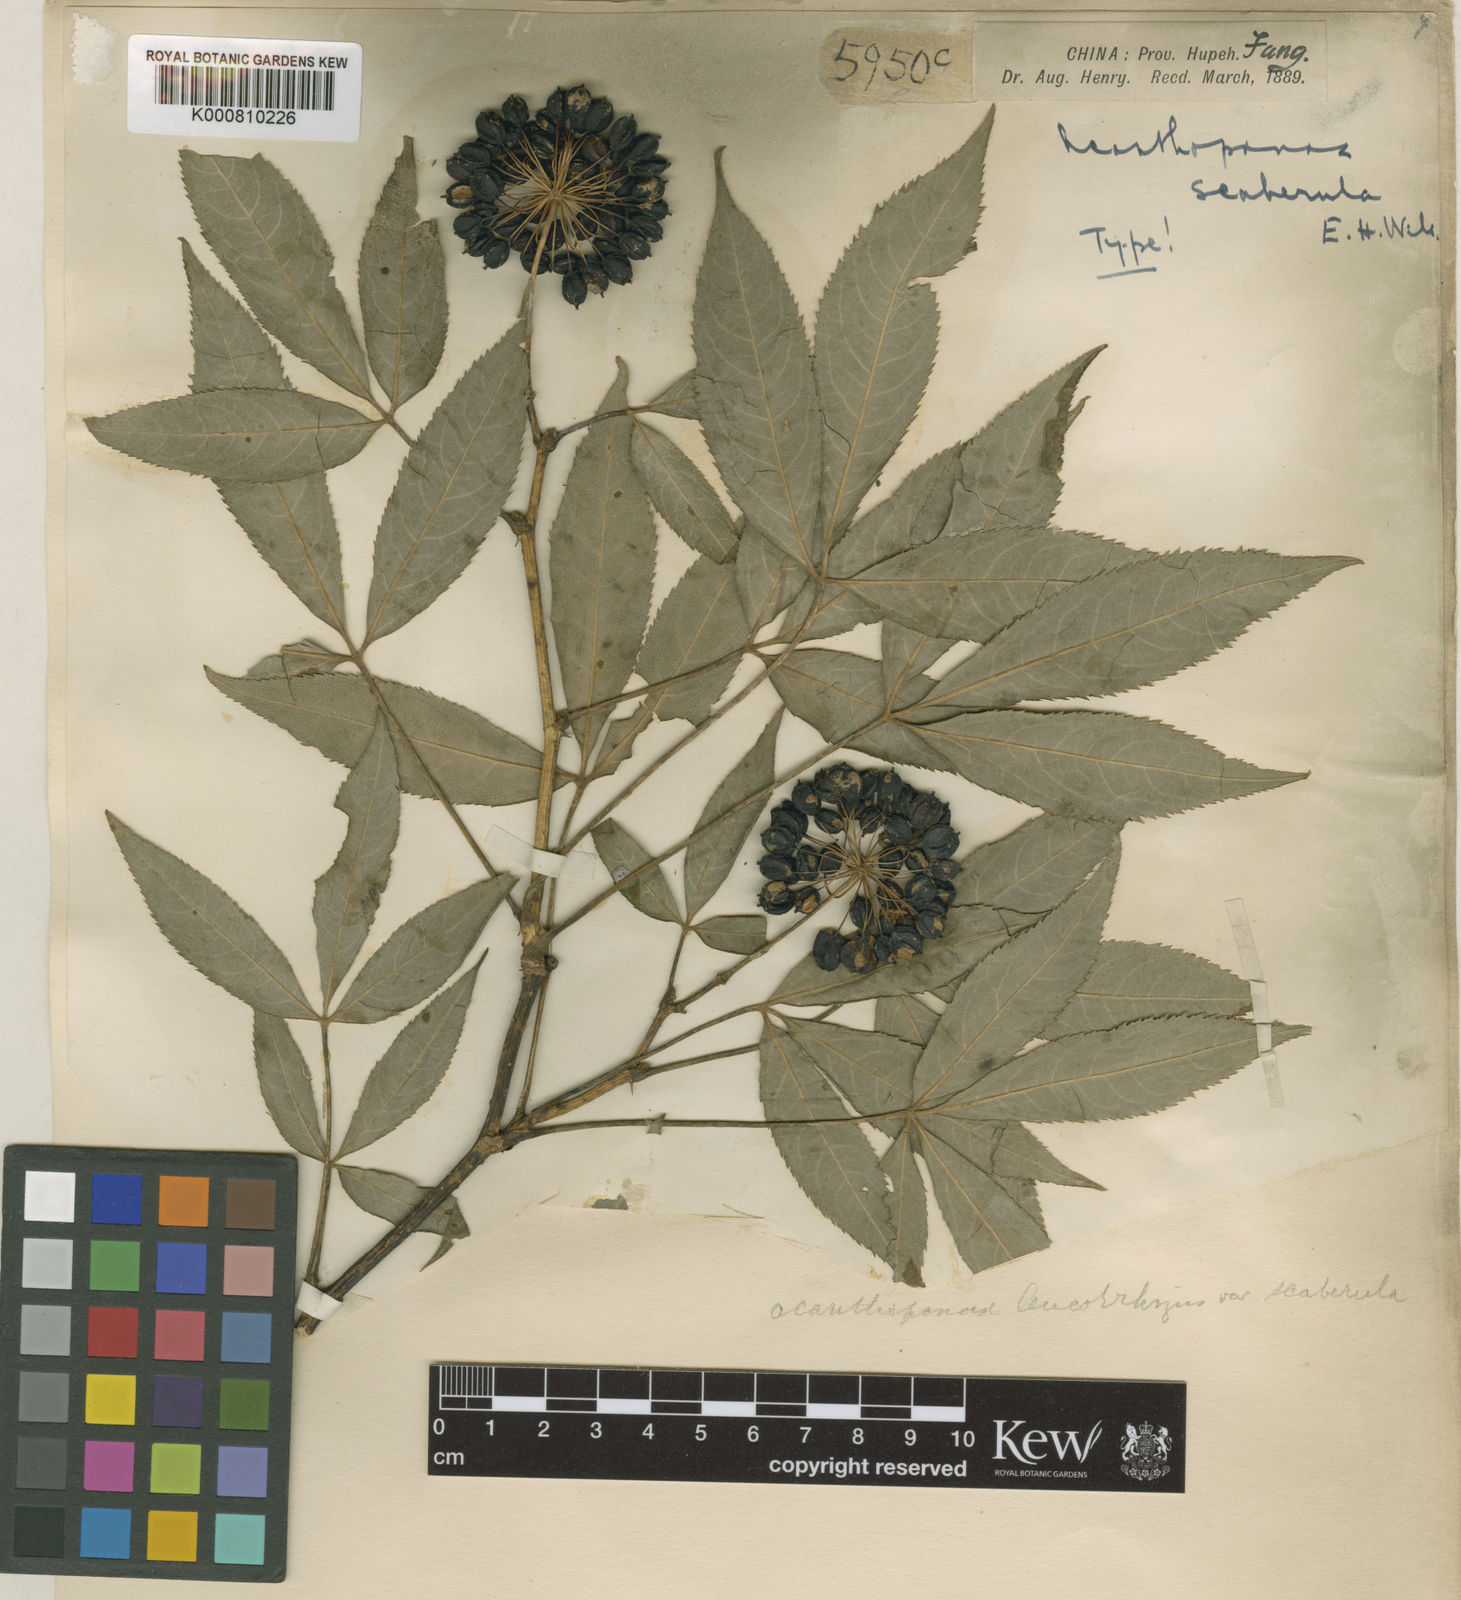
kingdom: Plantae
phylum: Tracheophyta
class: Magnoliopsida
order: Apiales
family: Araliaceae
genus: Eleutherococcus
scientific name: Eleutherococcus leucorrhizus
